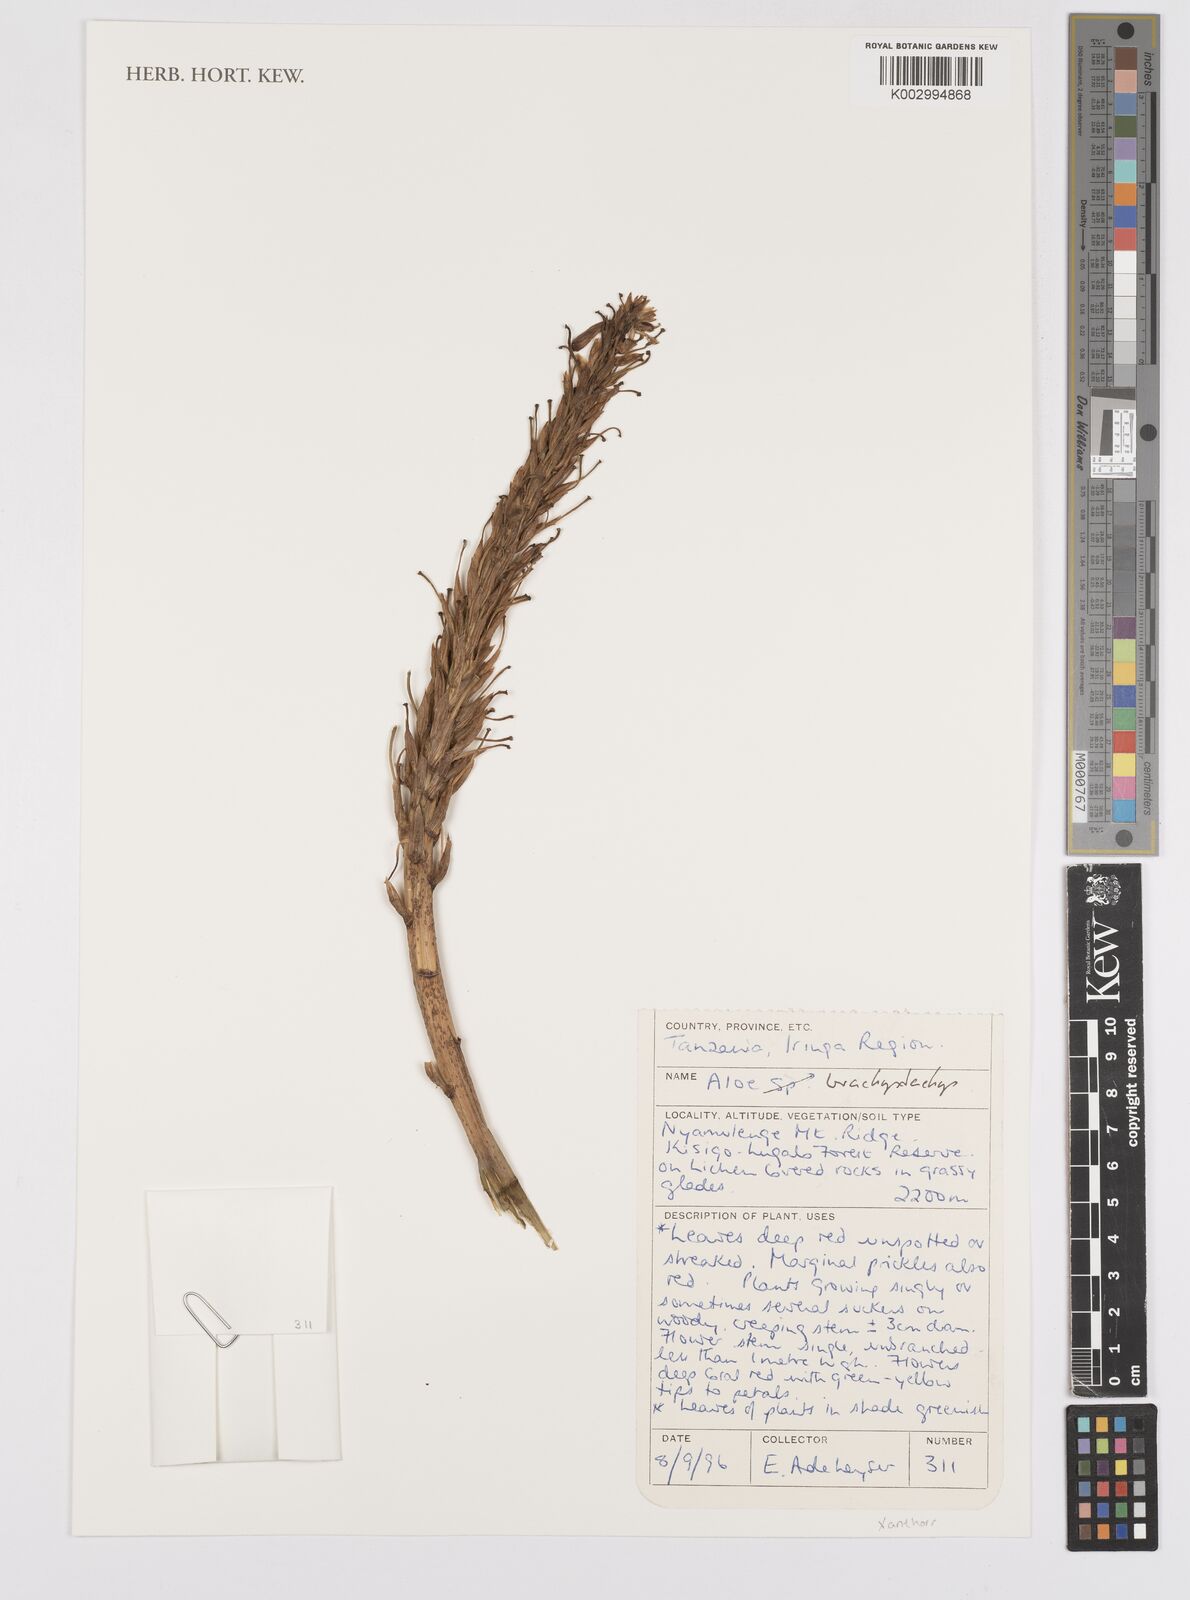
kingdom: Plantae
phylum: Tracheophyta
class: Liliopsida
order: Asparagales
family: Asphodelaceae
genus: Aloe
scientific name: Aloe brachystachys
